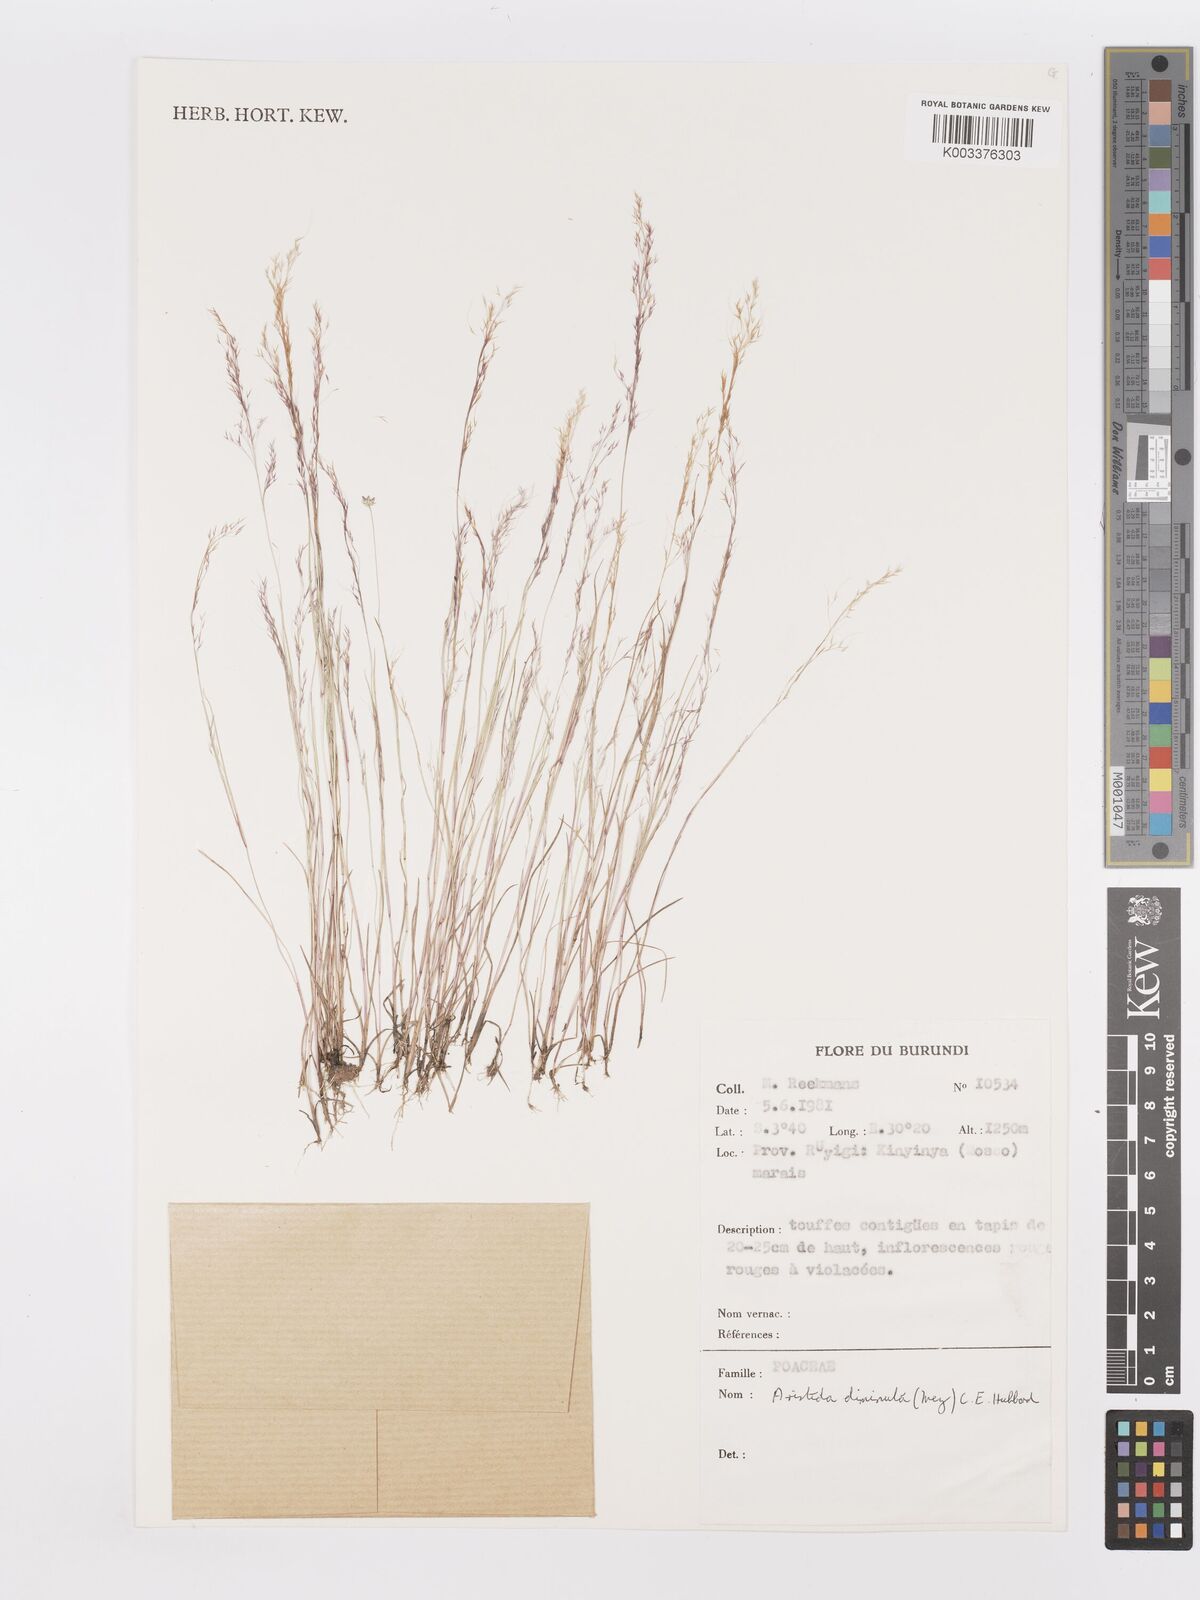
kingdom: Plantae
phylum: Tracheophyta
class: Liliopsida
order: Poales
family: Poaceae
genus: Aristida
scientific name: Aristida diminuta
